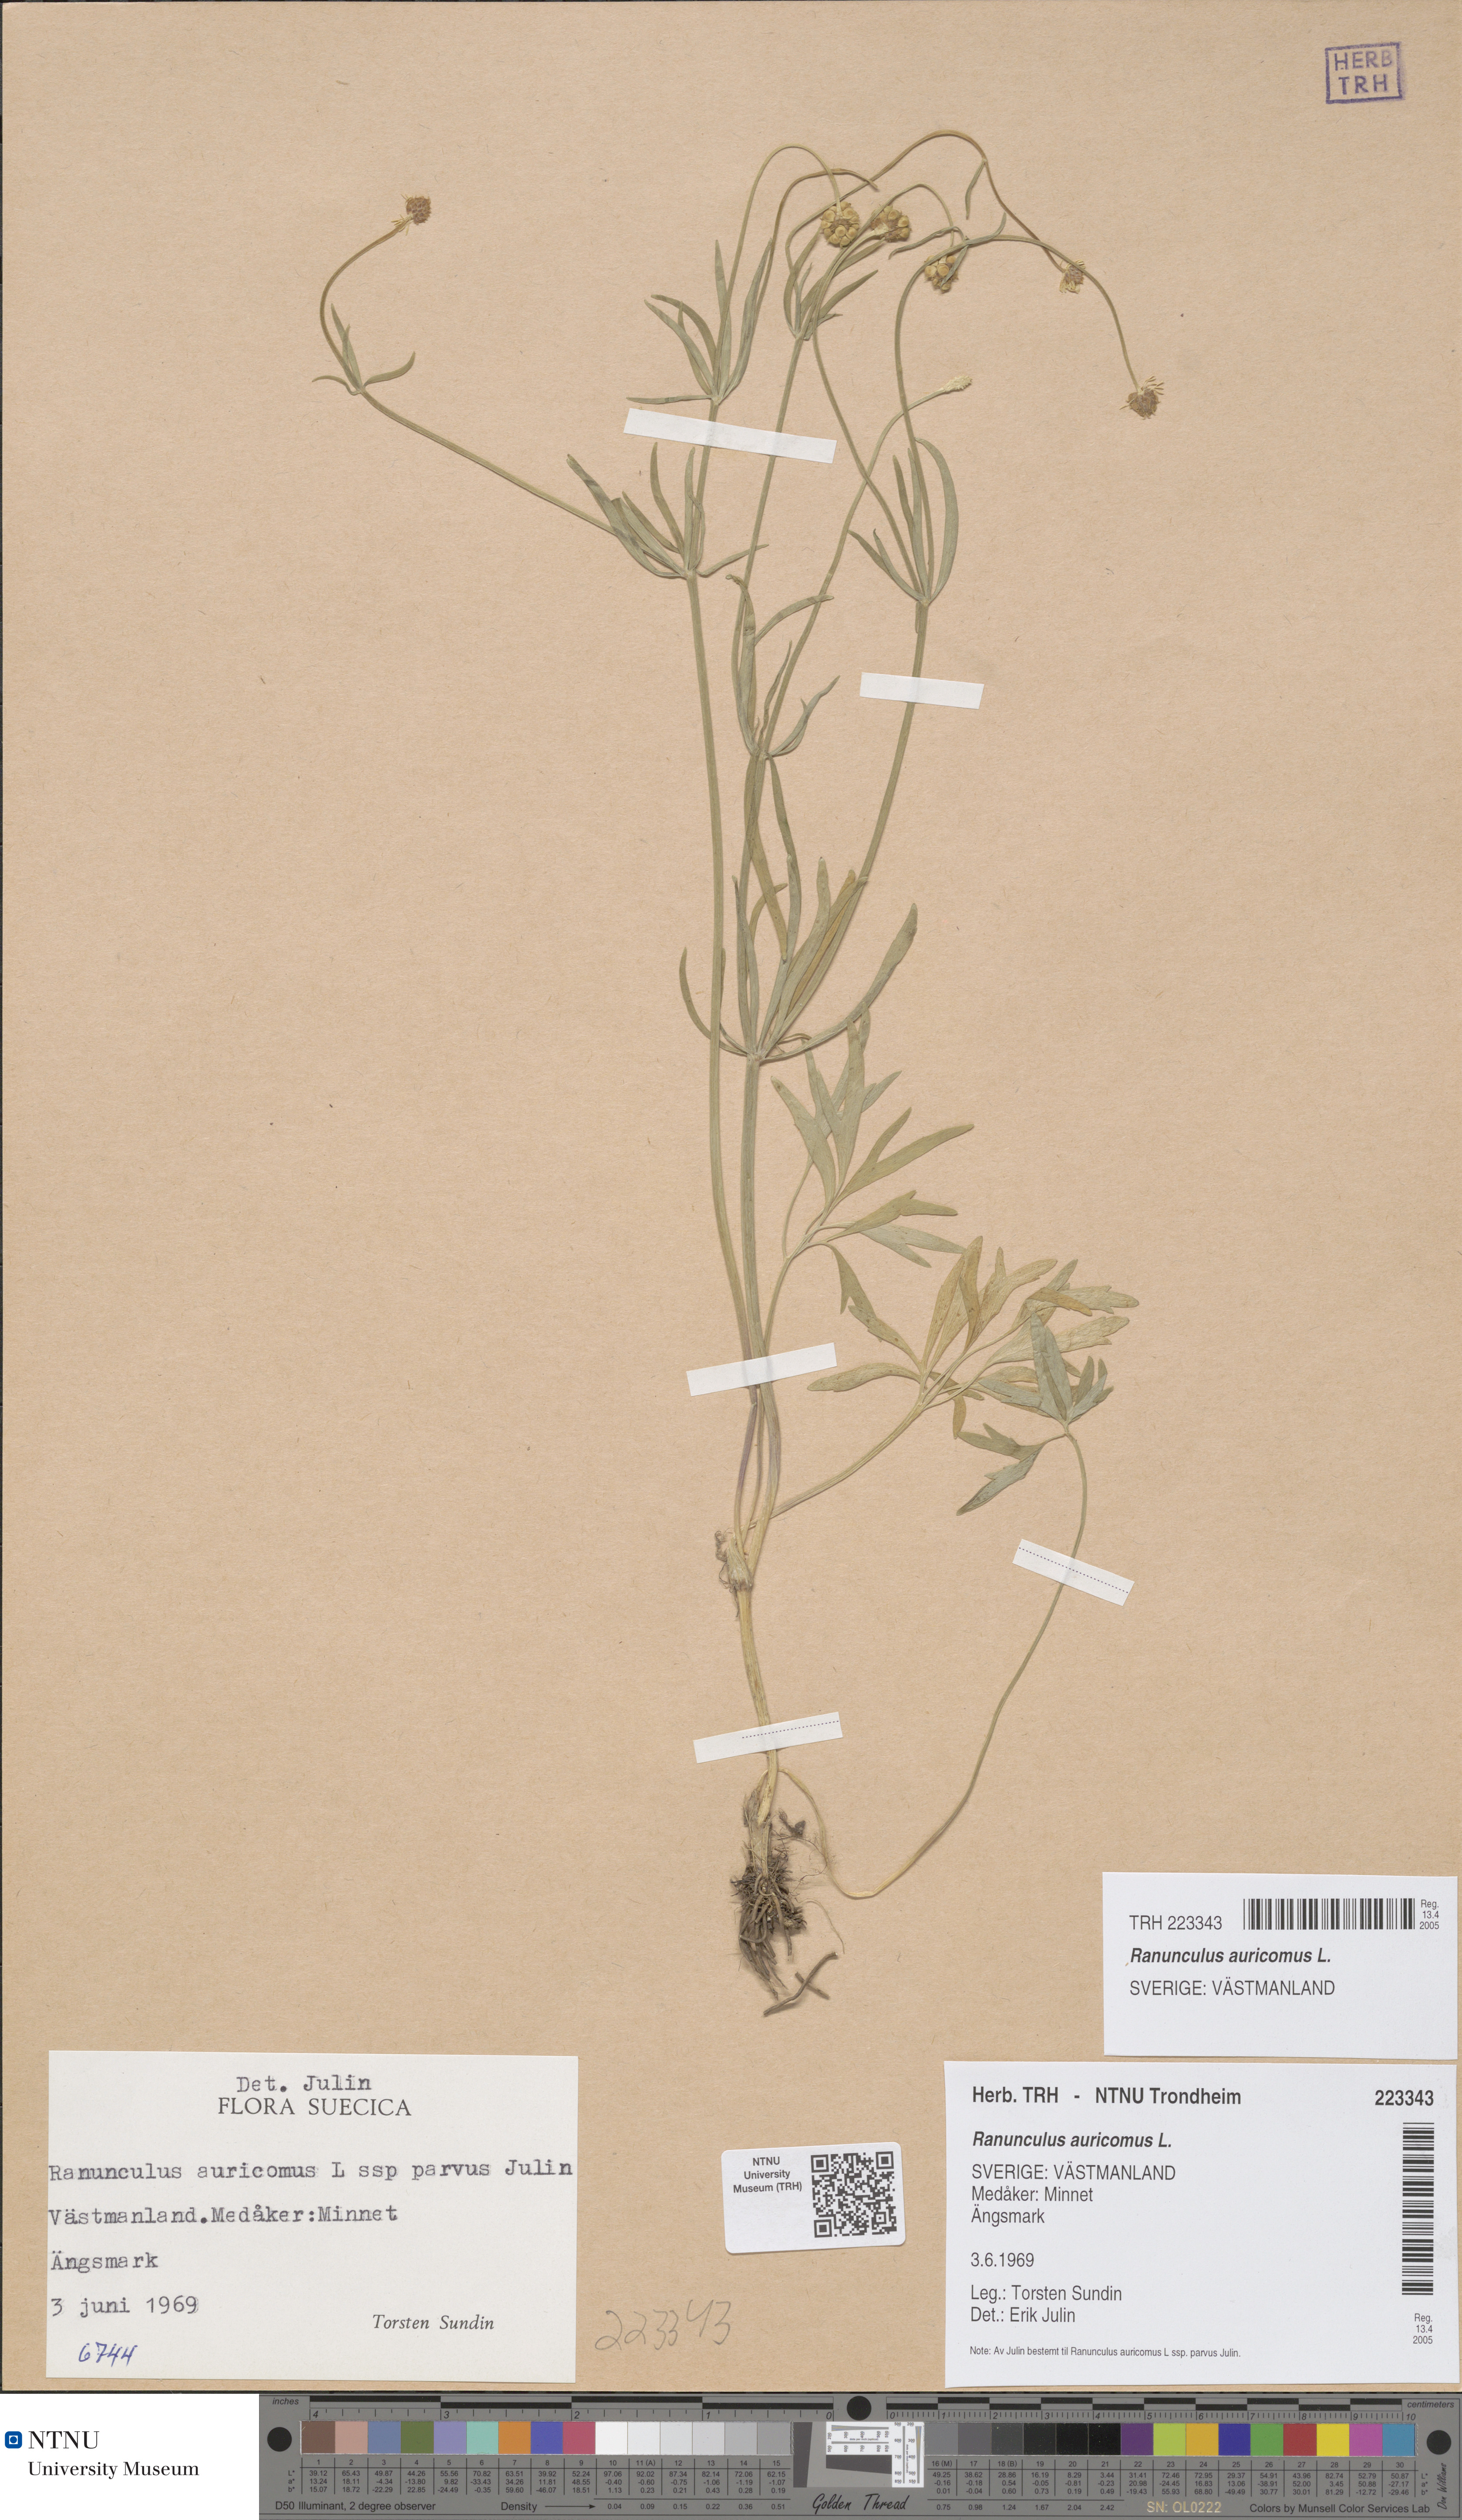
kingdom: Plantae
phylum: Tracheophyta
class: Magnoliopsida
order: Ranunculales
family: Ranunculaceae
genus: Ranunculus
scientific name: Ranunculus auricomus
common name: Goldilocks buttercup
